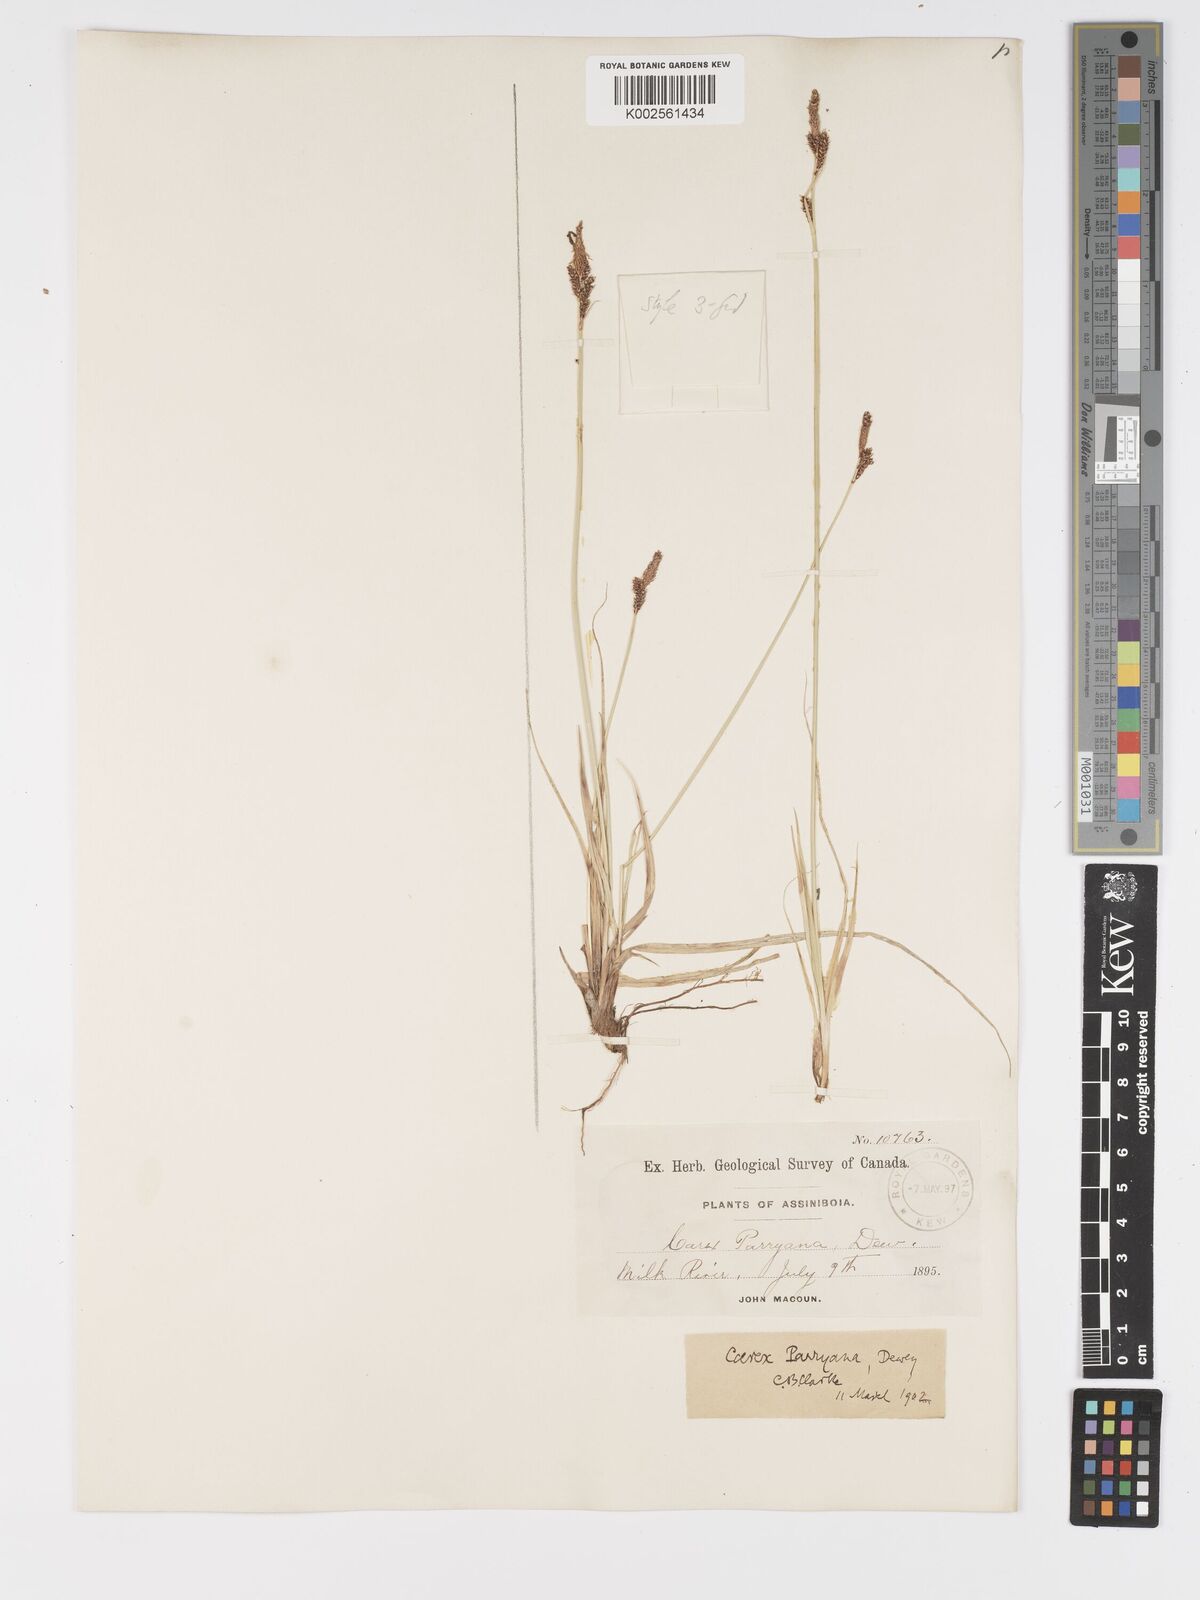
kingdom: Plantae
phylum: Tracheophyta
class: Liliopsida
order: Poales
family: Cyperaceae
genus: Carex
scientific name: Carex parryana
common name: Parry's sedge
